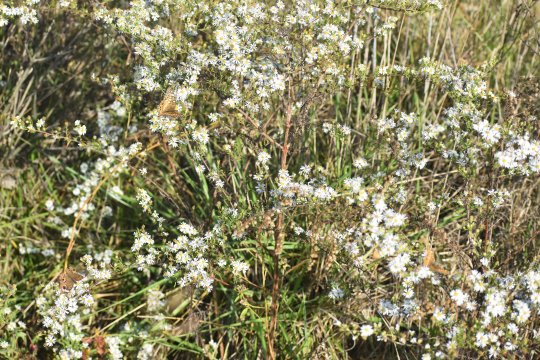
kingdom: Animalia
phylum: Arthropoda
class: Insecta
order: Lepidoptera
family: Nymphalidae
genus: Euptoieta
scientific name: Euptoieta claudia
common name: Variegated Fritillary
